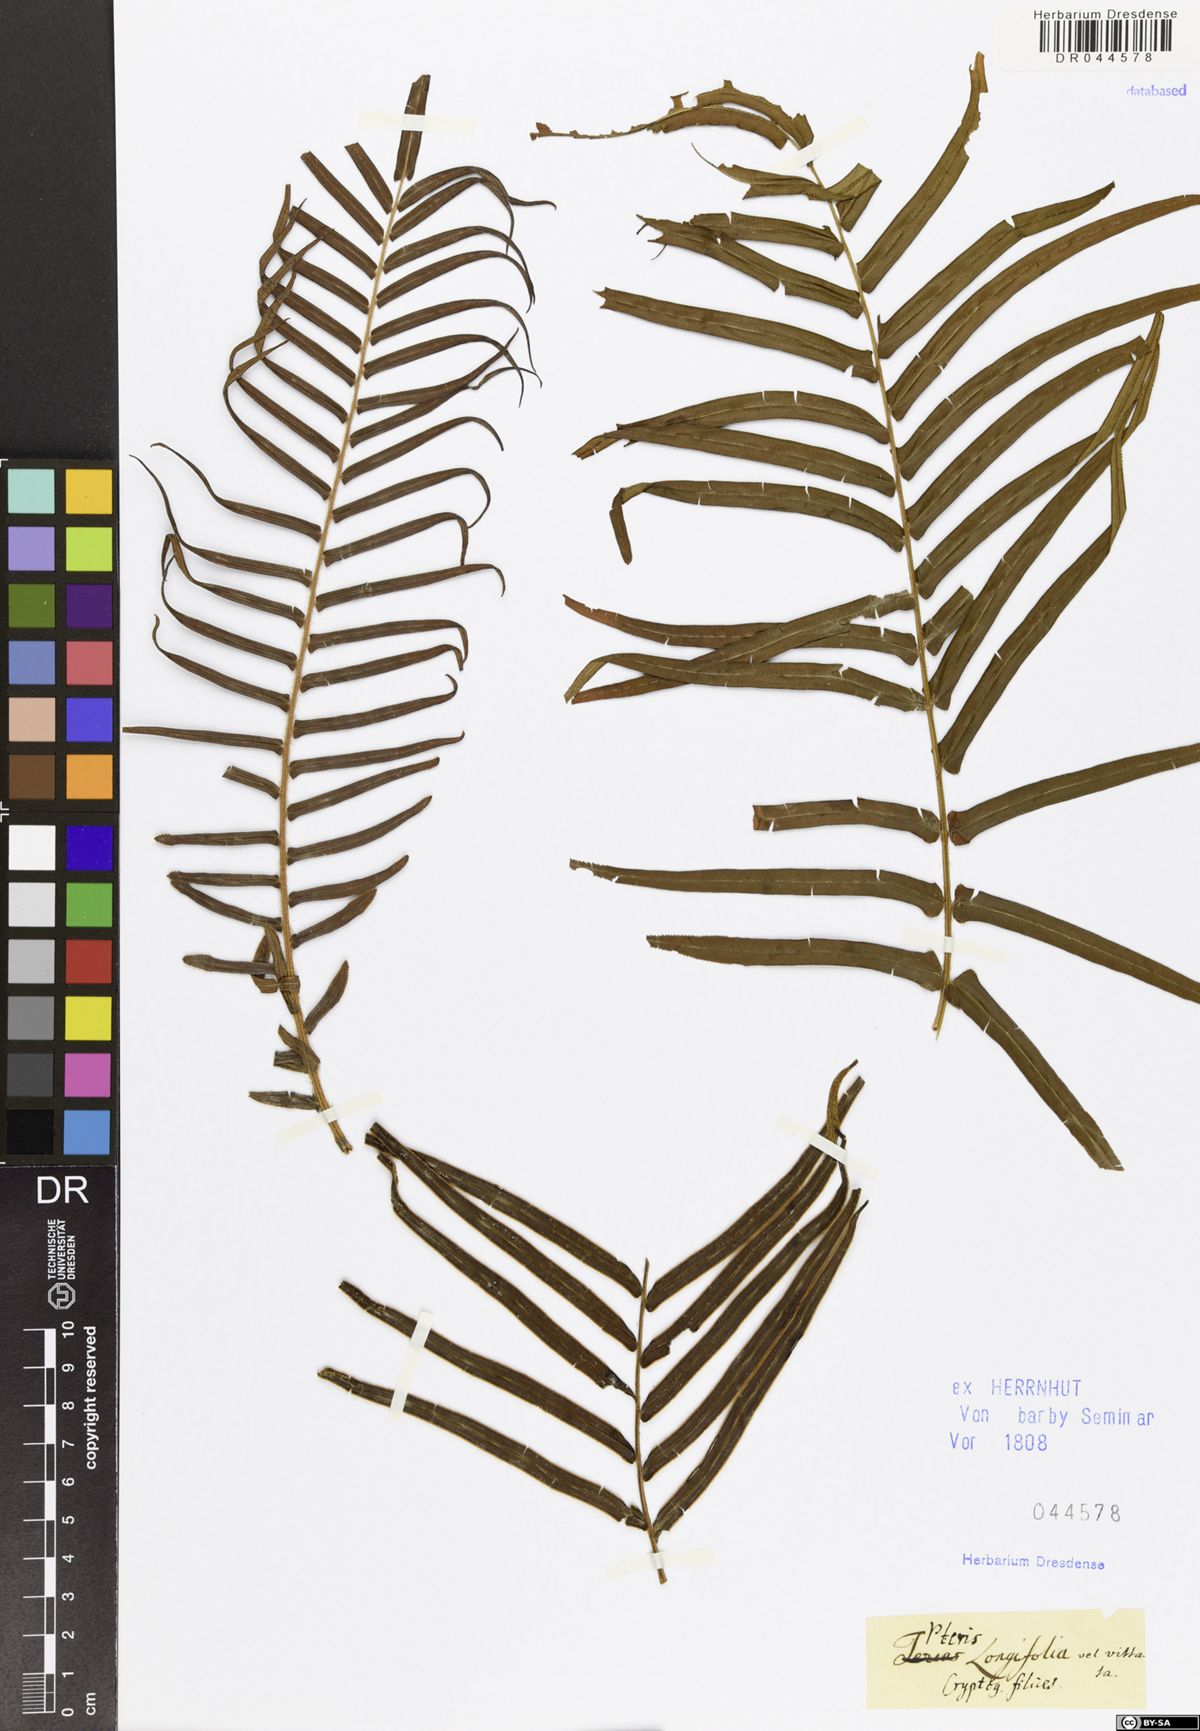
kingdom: Plantae
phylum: Tracheophyta
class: Polypodiopsida
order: Polypodiales
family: Pteridaceae
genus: Pteris
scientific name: Pteris longifolia
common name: Longleaf brake
